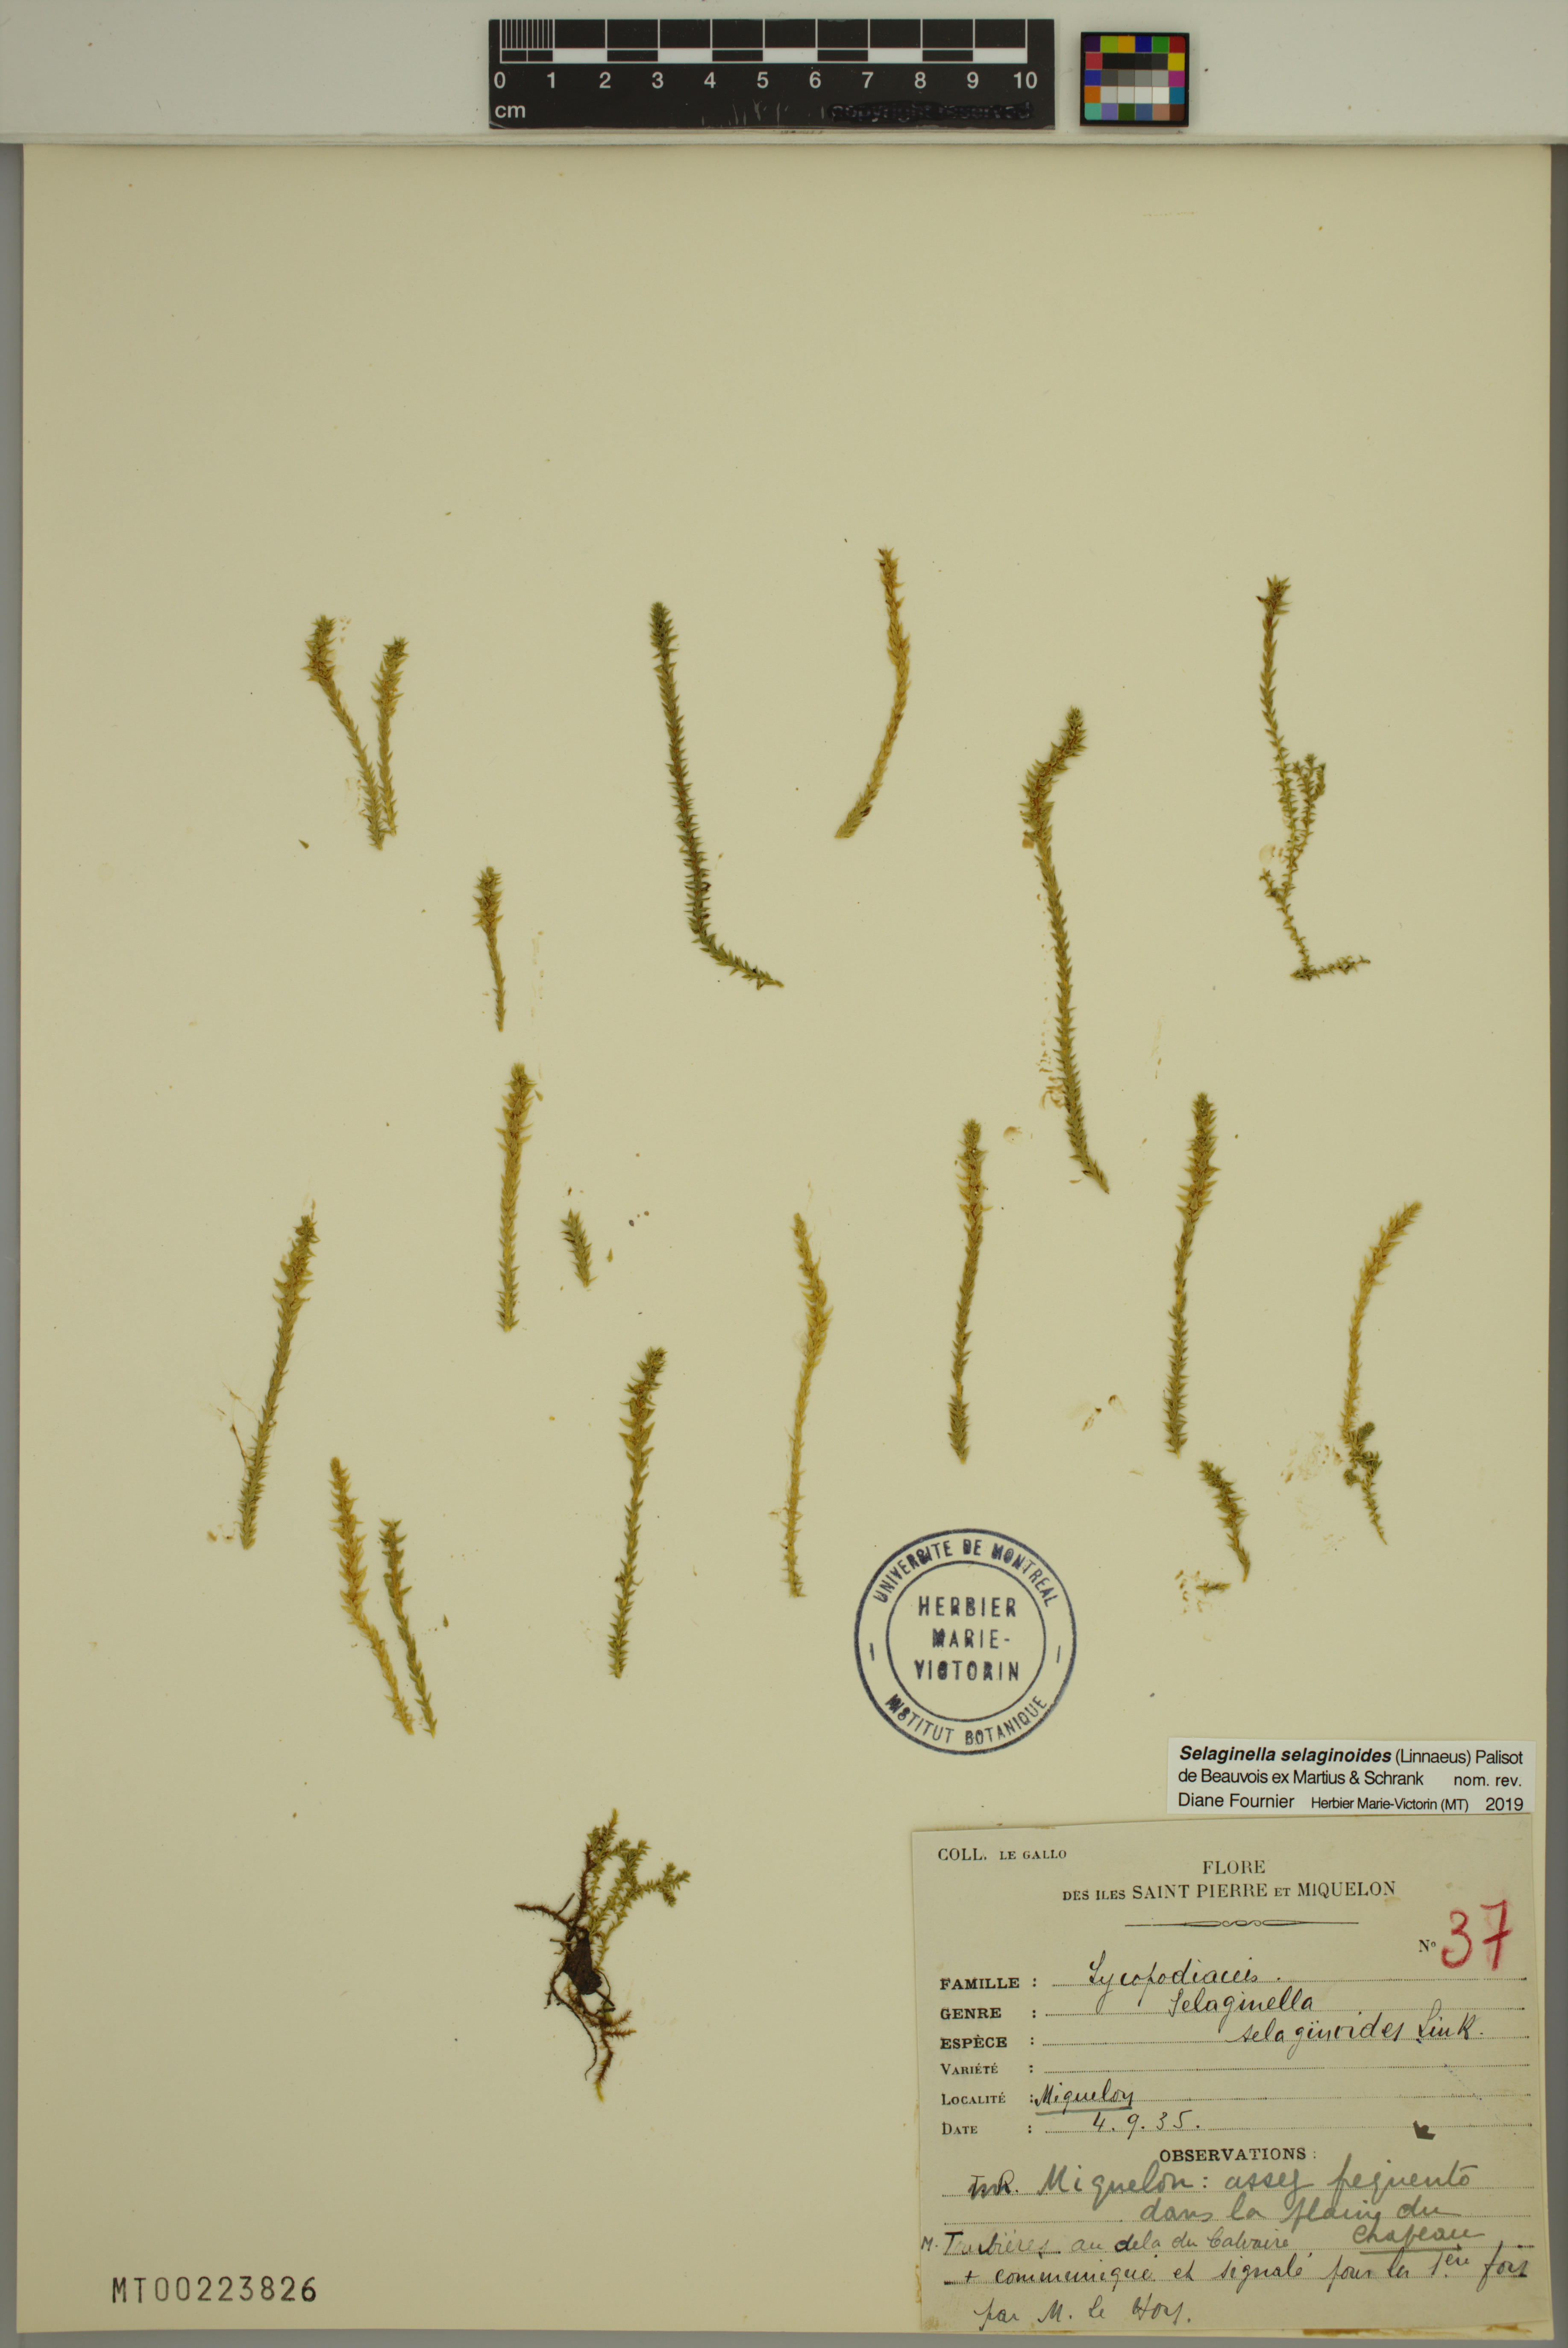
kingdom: Plantae
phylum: Tracheophyta
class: Lycopodiopsida
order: Selaginellales
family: Selaginellaceae
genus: Selaginella
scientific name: Selaginella selaginoides
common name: Prickly mountain-moss
